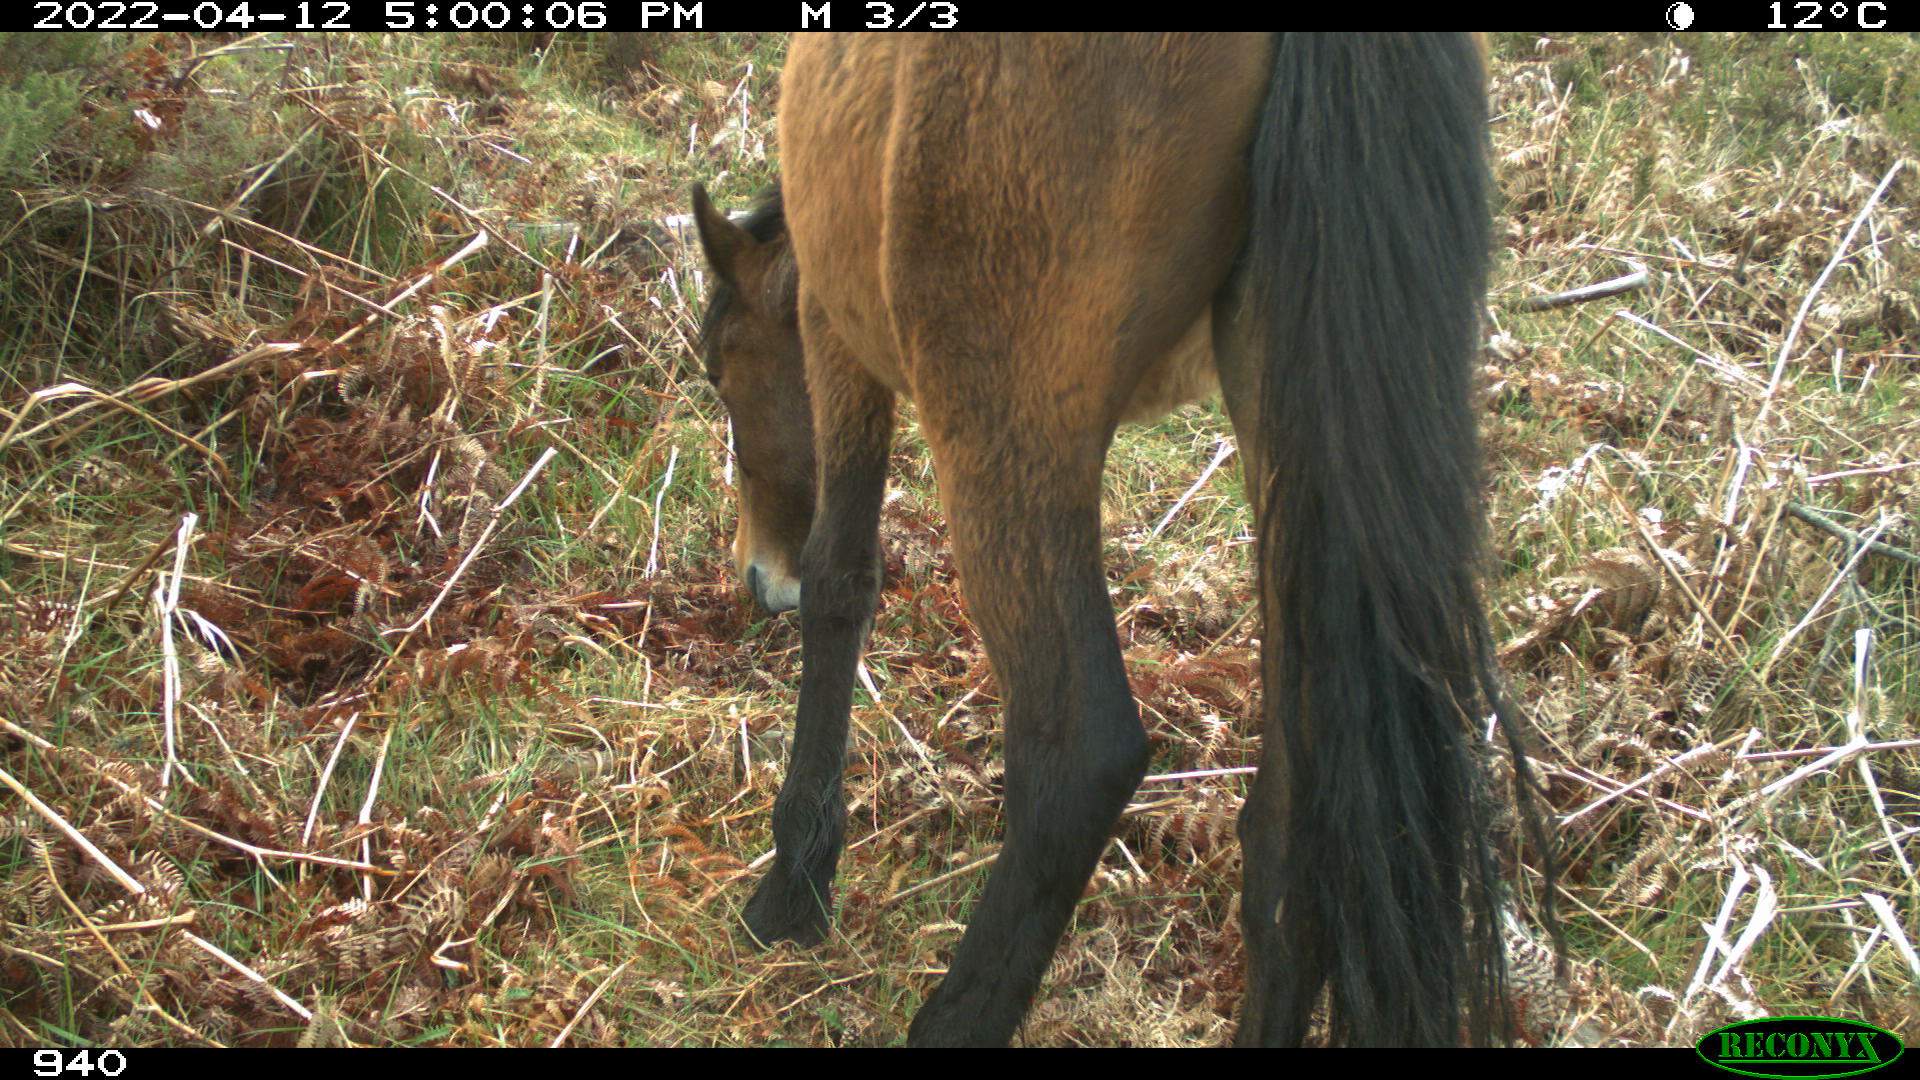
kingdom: Animalia
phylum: Chordata
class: Mammalia
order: Perissodactyla
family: Equidae
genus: Equus
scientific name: Equus caballus
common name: Horse
